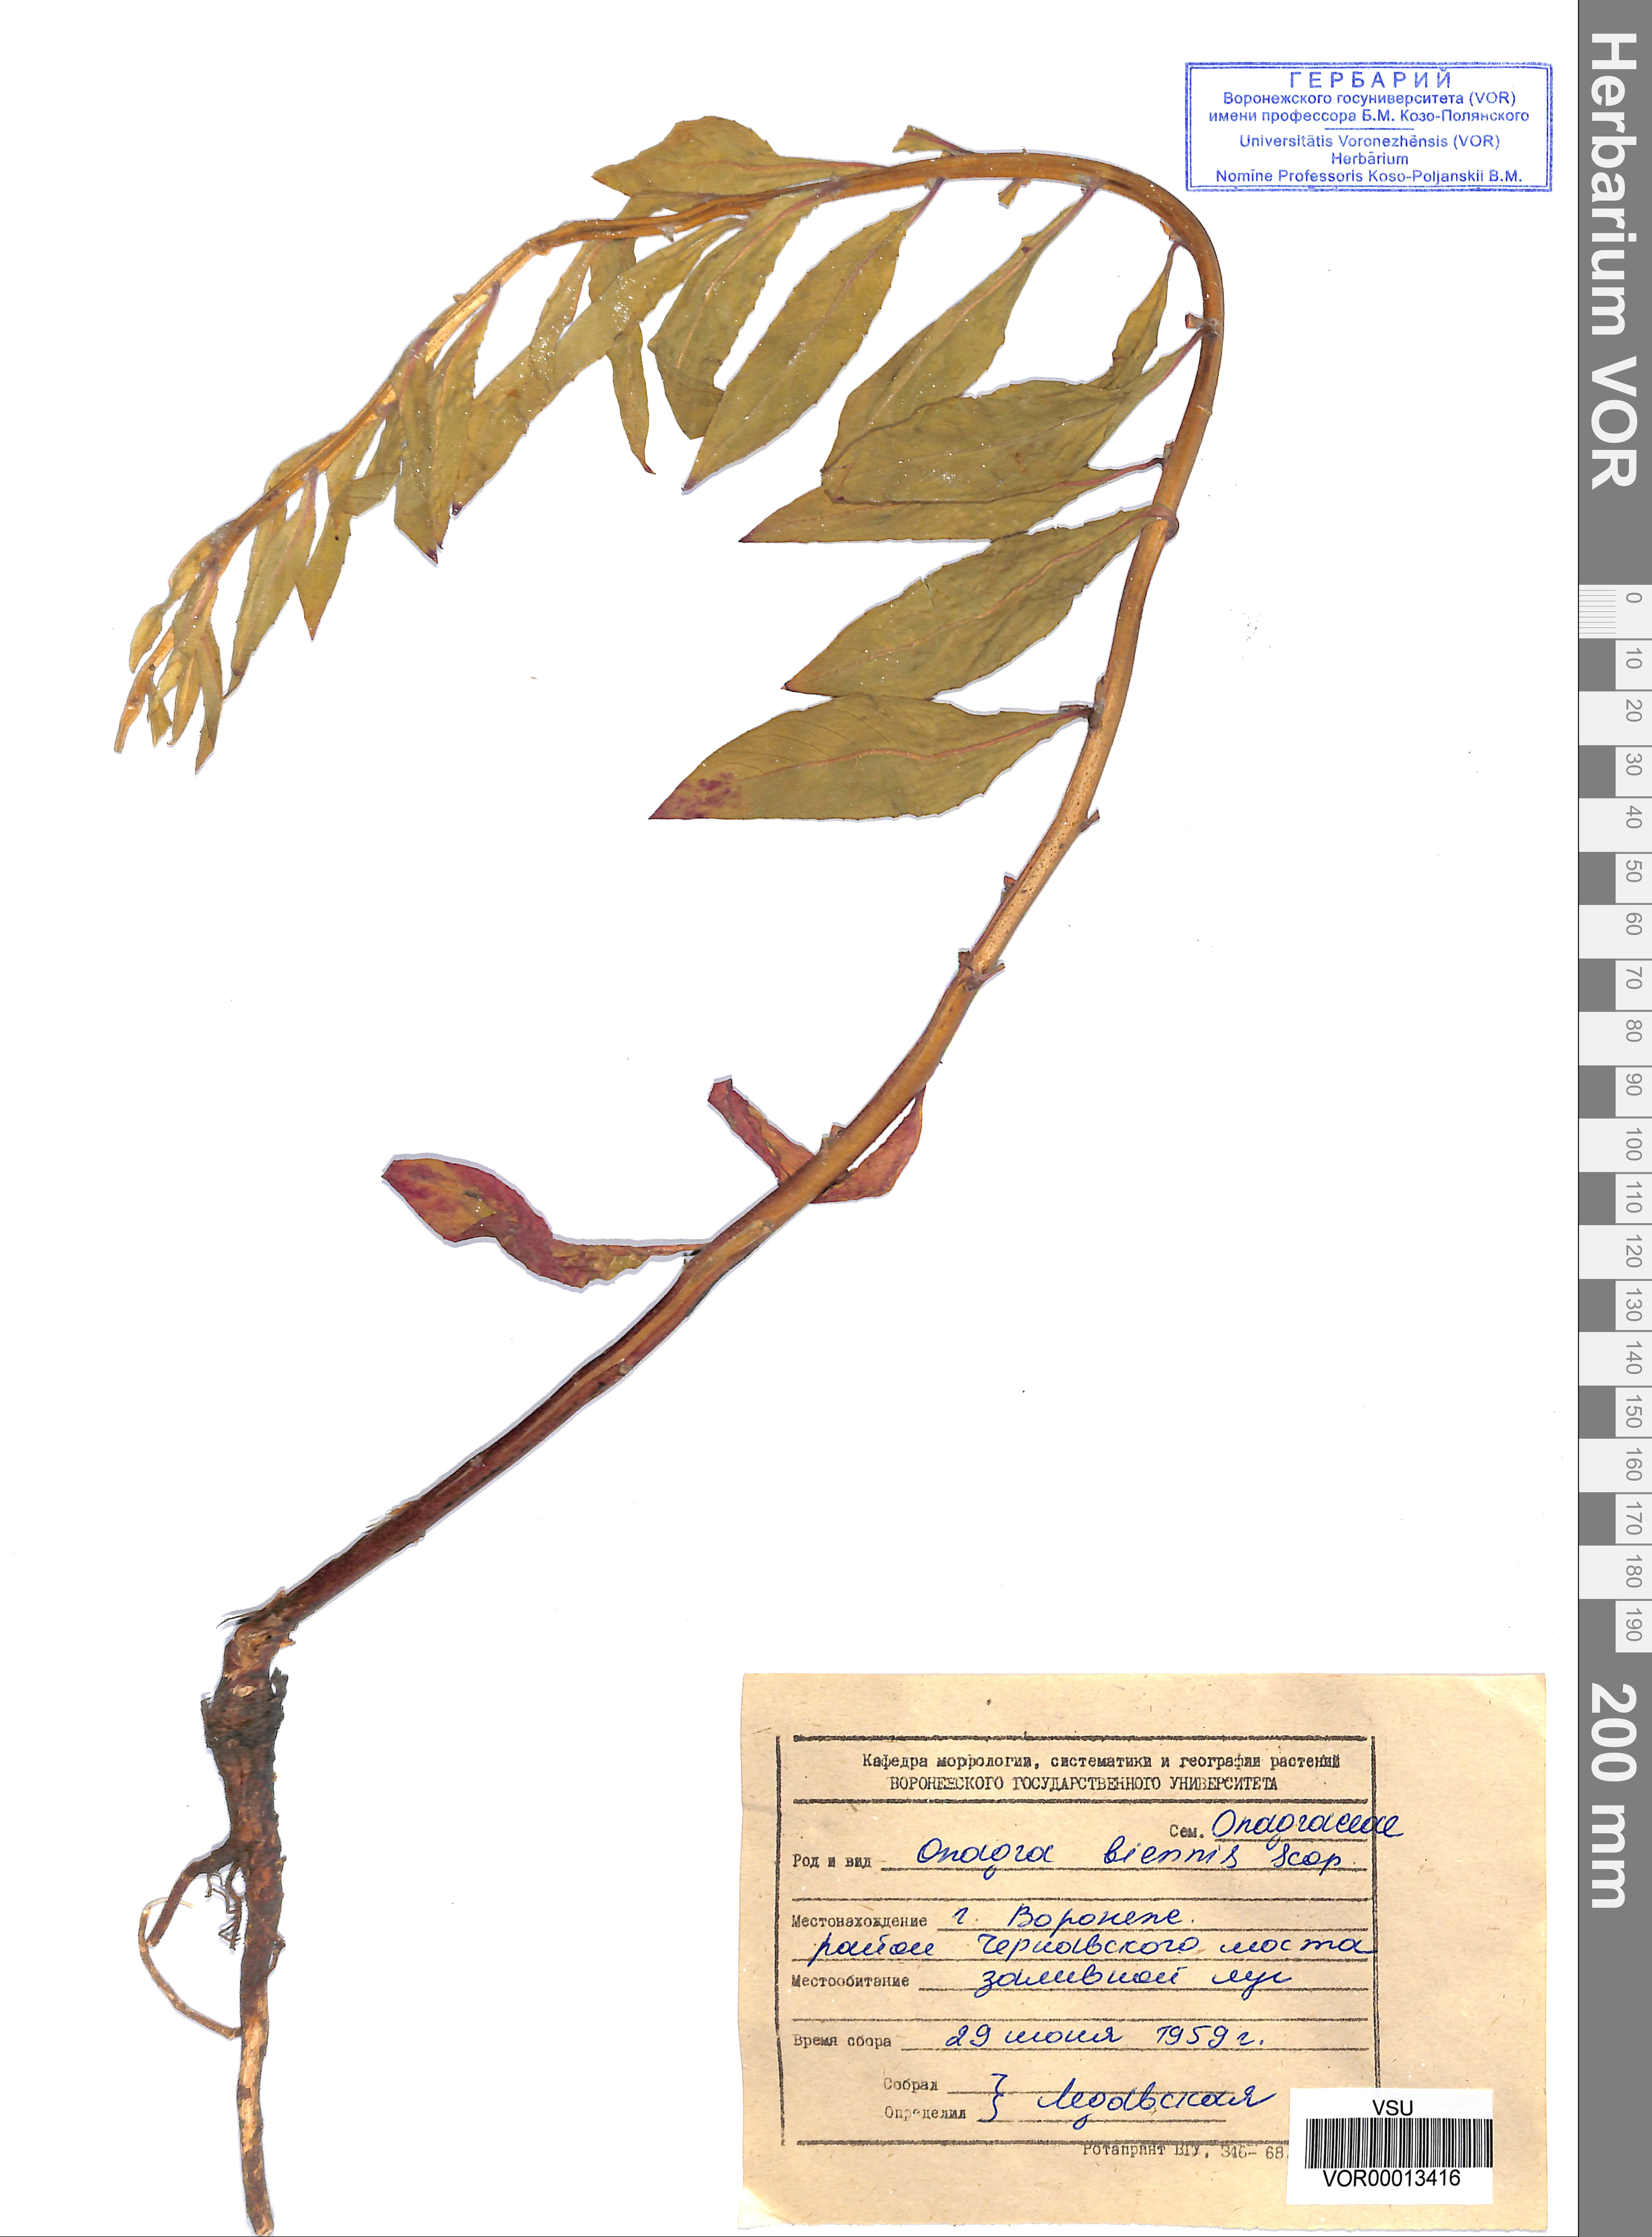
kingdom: Plantae
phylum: Tracheophyta
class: Magnoliopsida
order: Myrtales
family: Onagraceae
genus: Oenothera
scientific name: Oenothera biennis
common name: Common evening-primrose
